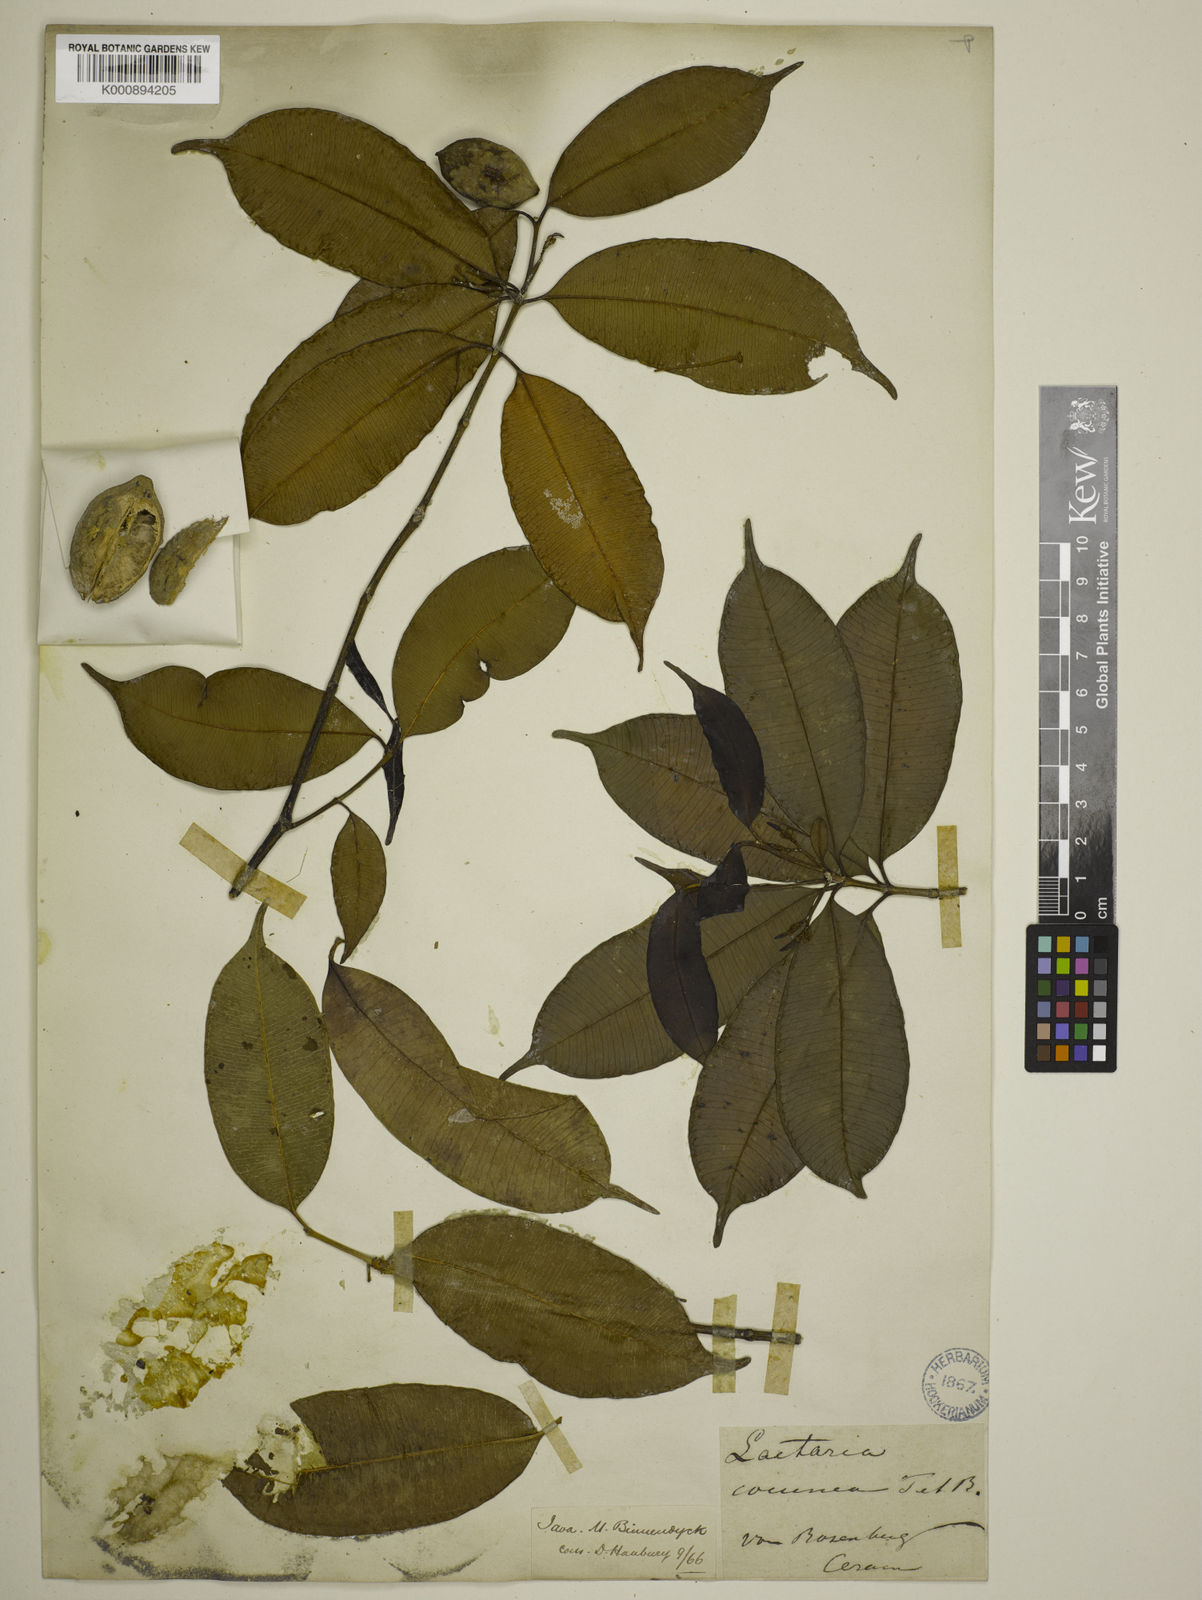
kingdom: Plantae
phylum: Tracheophyta
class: Magnoliopsida
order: Gentianales
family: Apocynaceae
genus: Ochrosia
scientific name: Ochrosia coccinea
